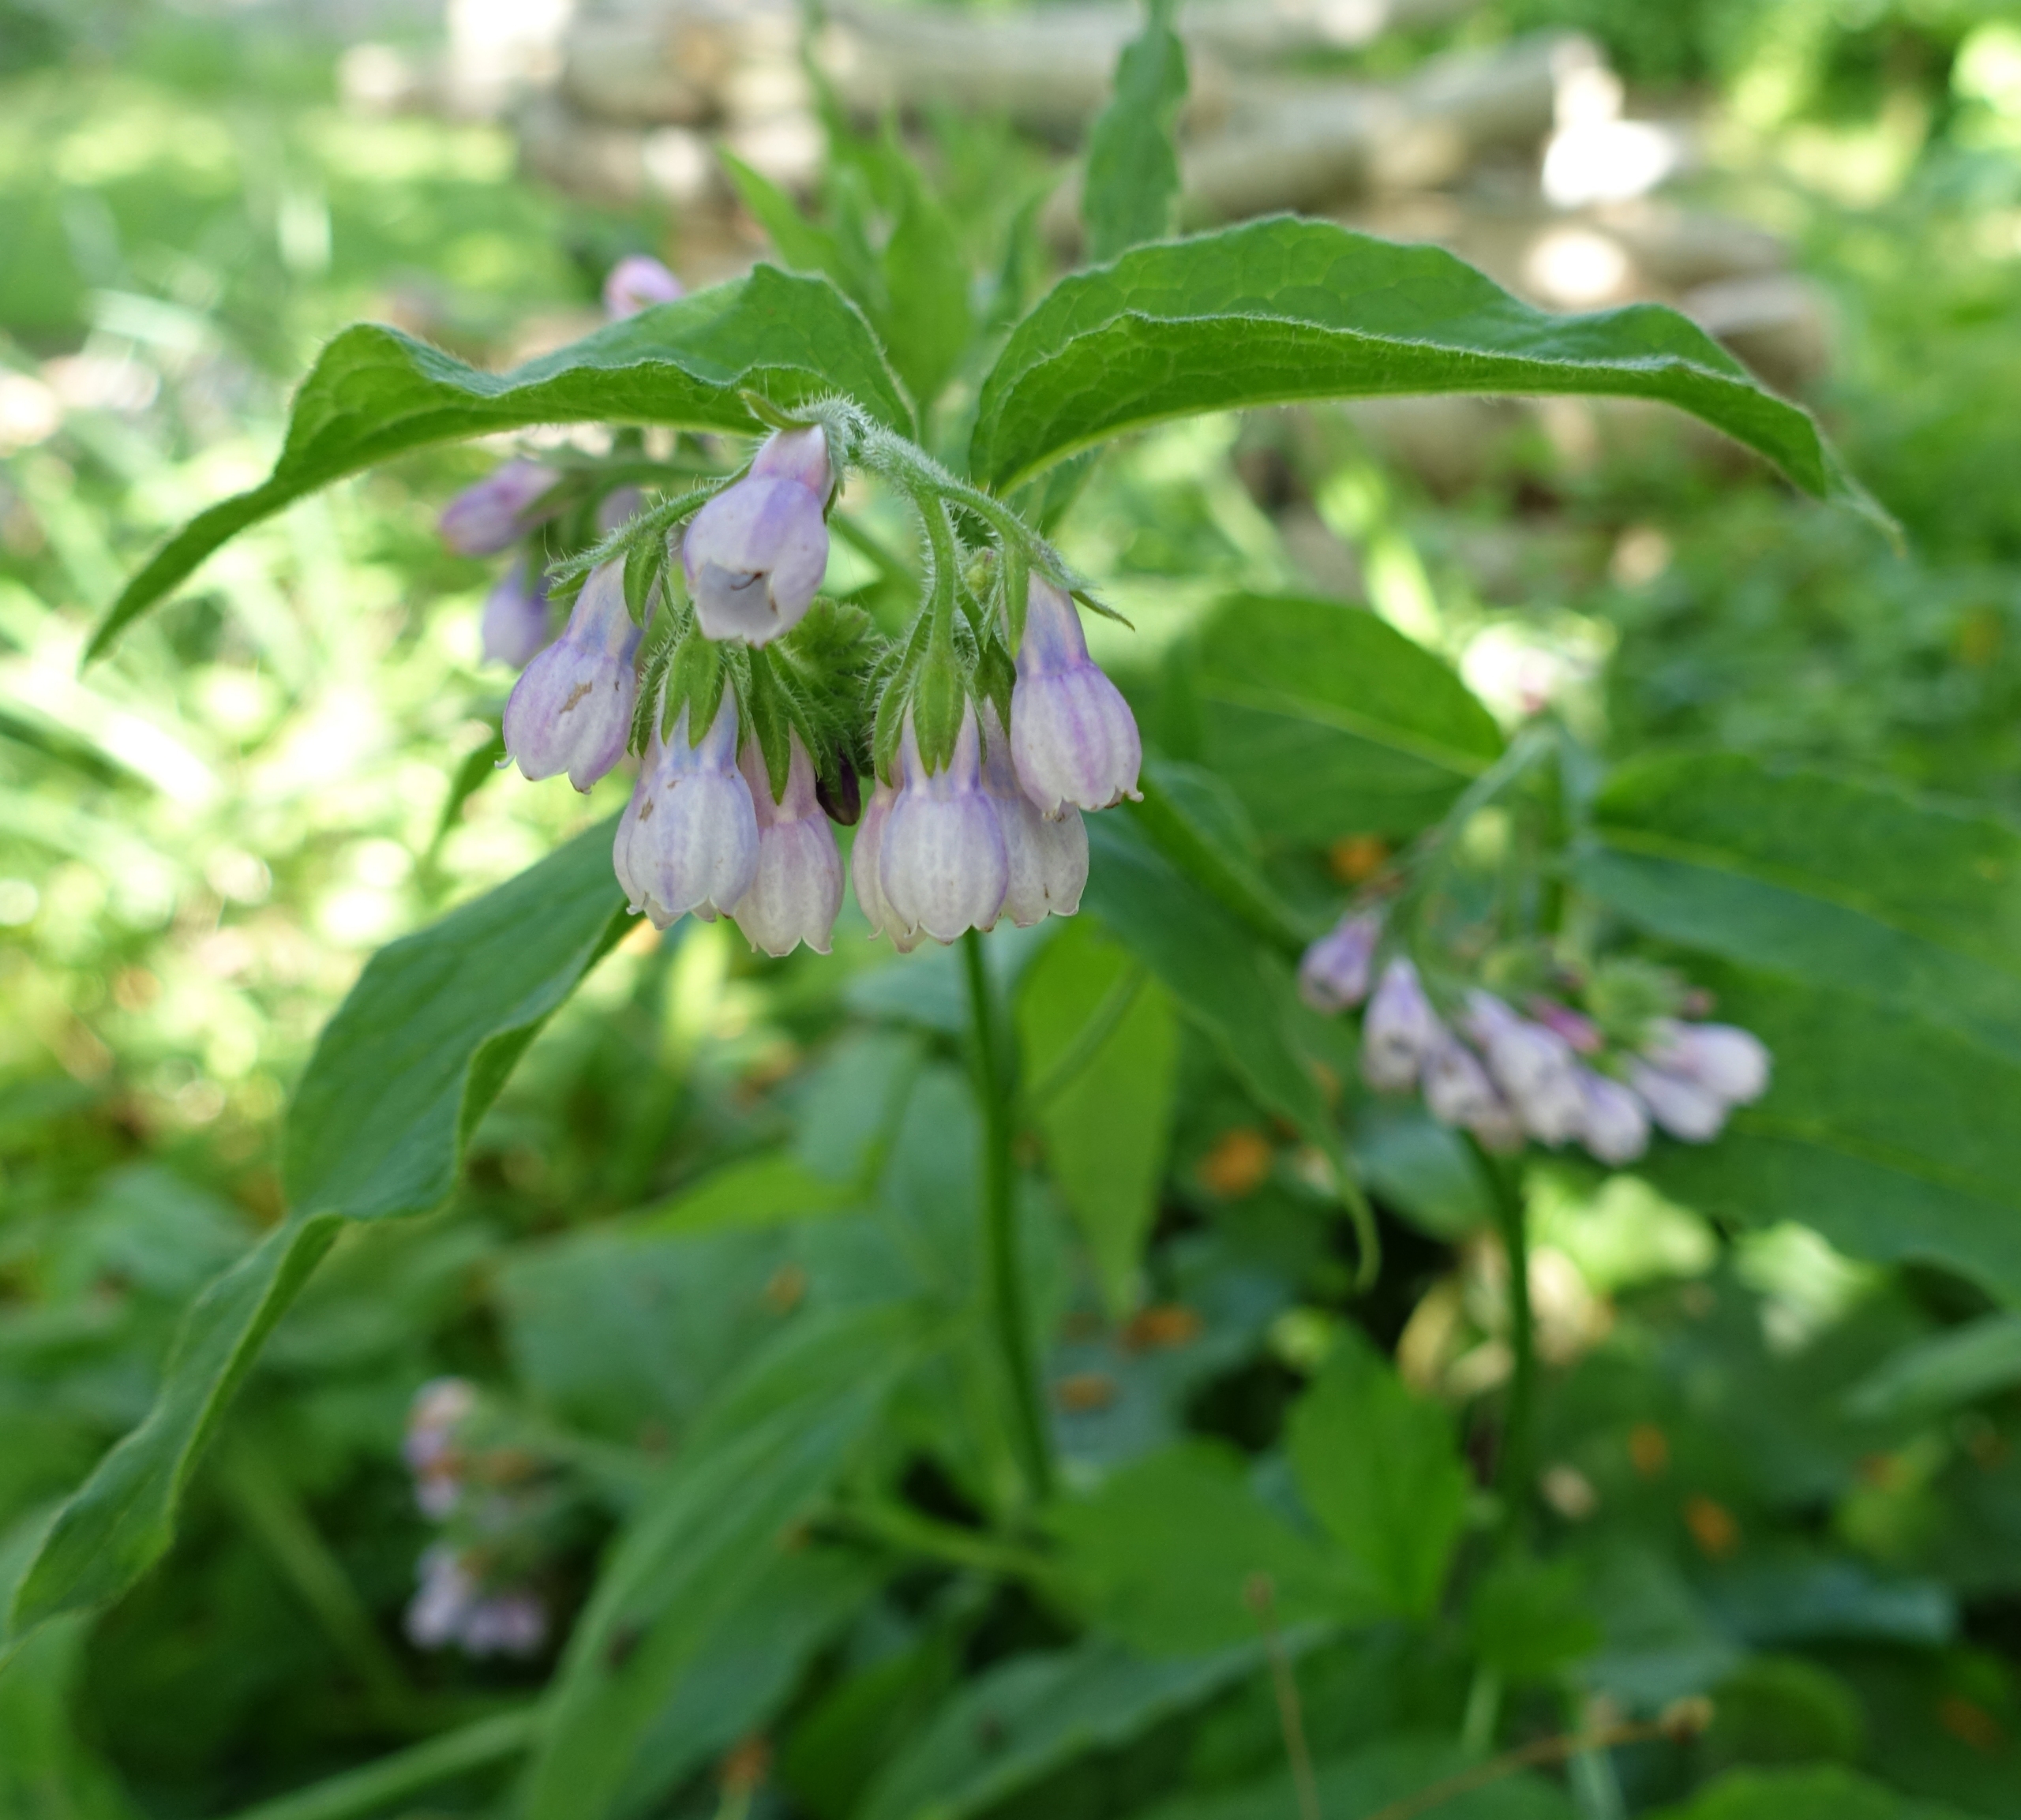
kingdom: Plantae
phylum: Tracheophyta
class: Magnoliopsida
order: Boraginales
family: Boraginaceae
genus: Symphytum
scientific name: Symphytum uplandicum
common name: Foder-kulsukker
